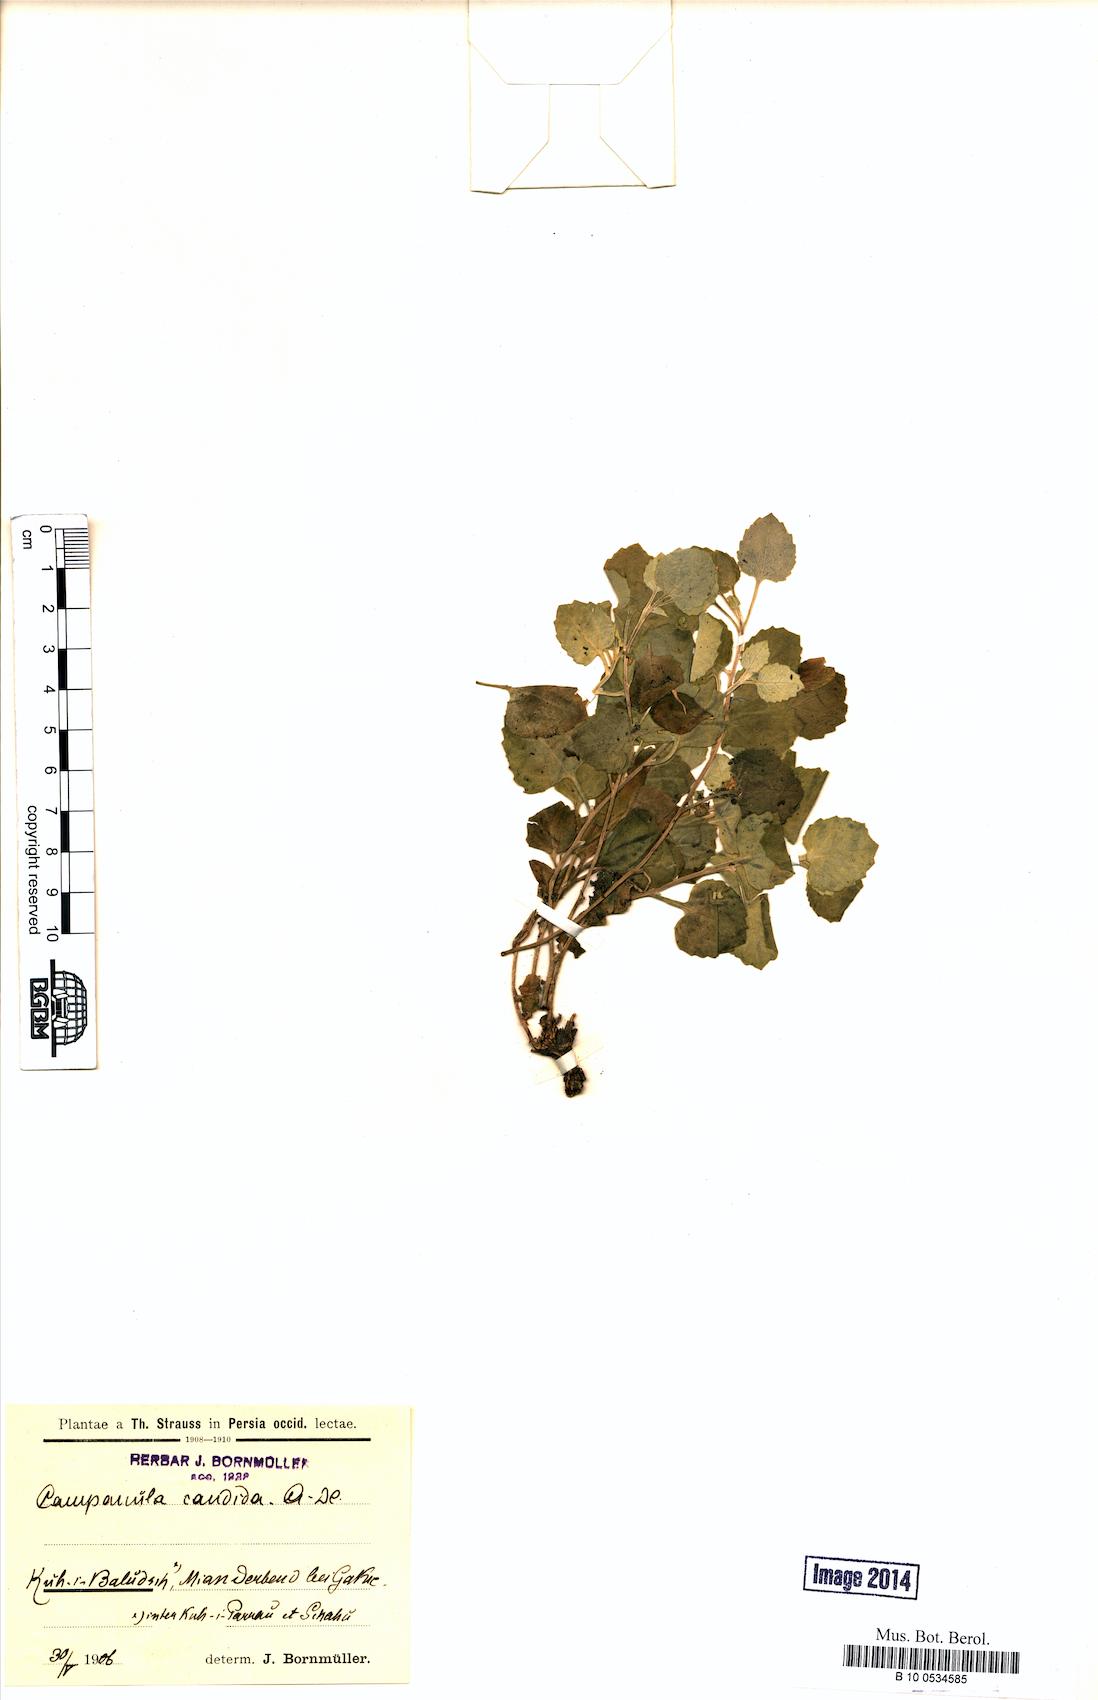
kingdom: Plantae
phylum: Tracheophyta
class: Magnoliopsida
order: Asterales
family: Campanulaceae
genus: Campanula
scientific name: Campanula candida
